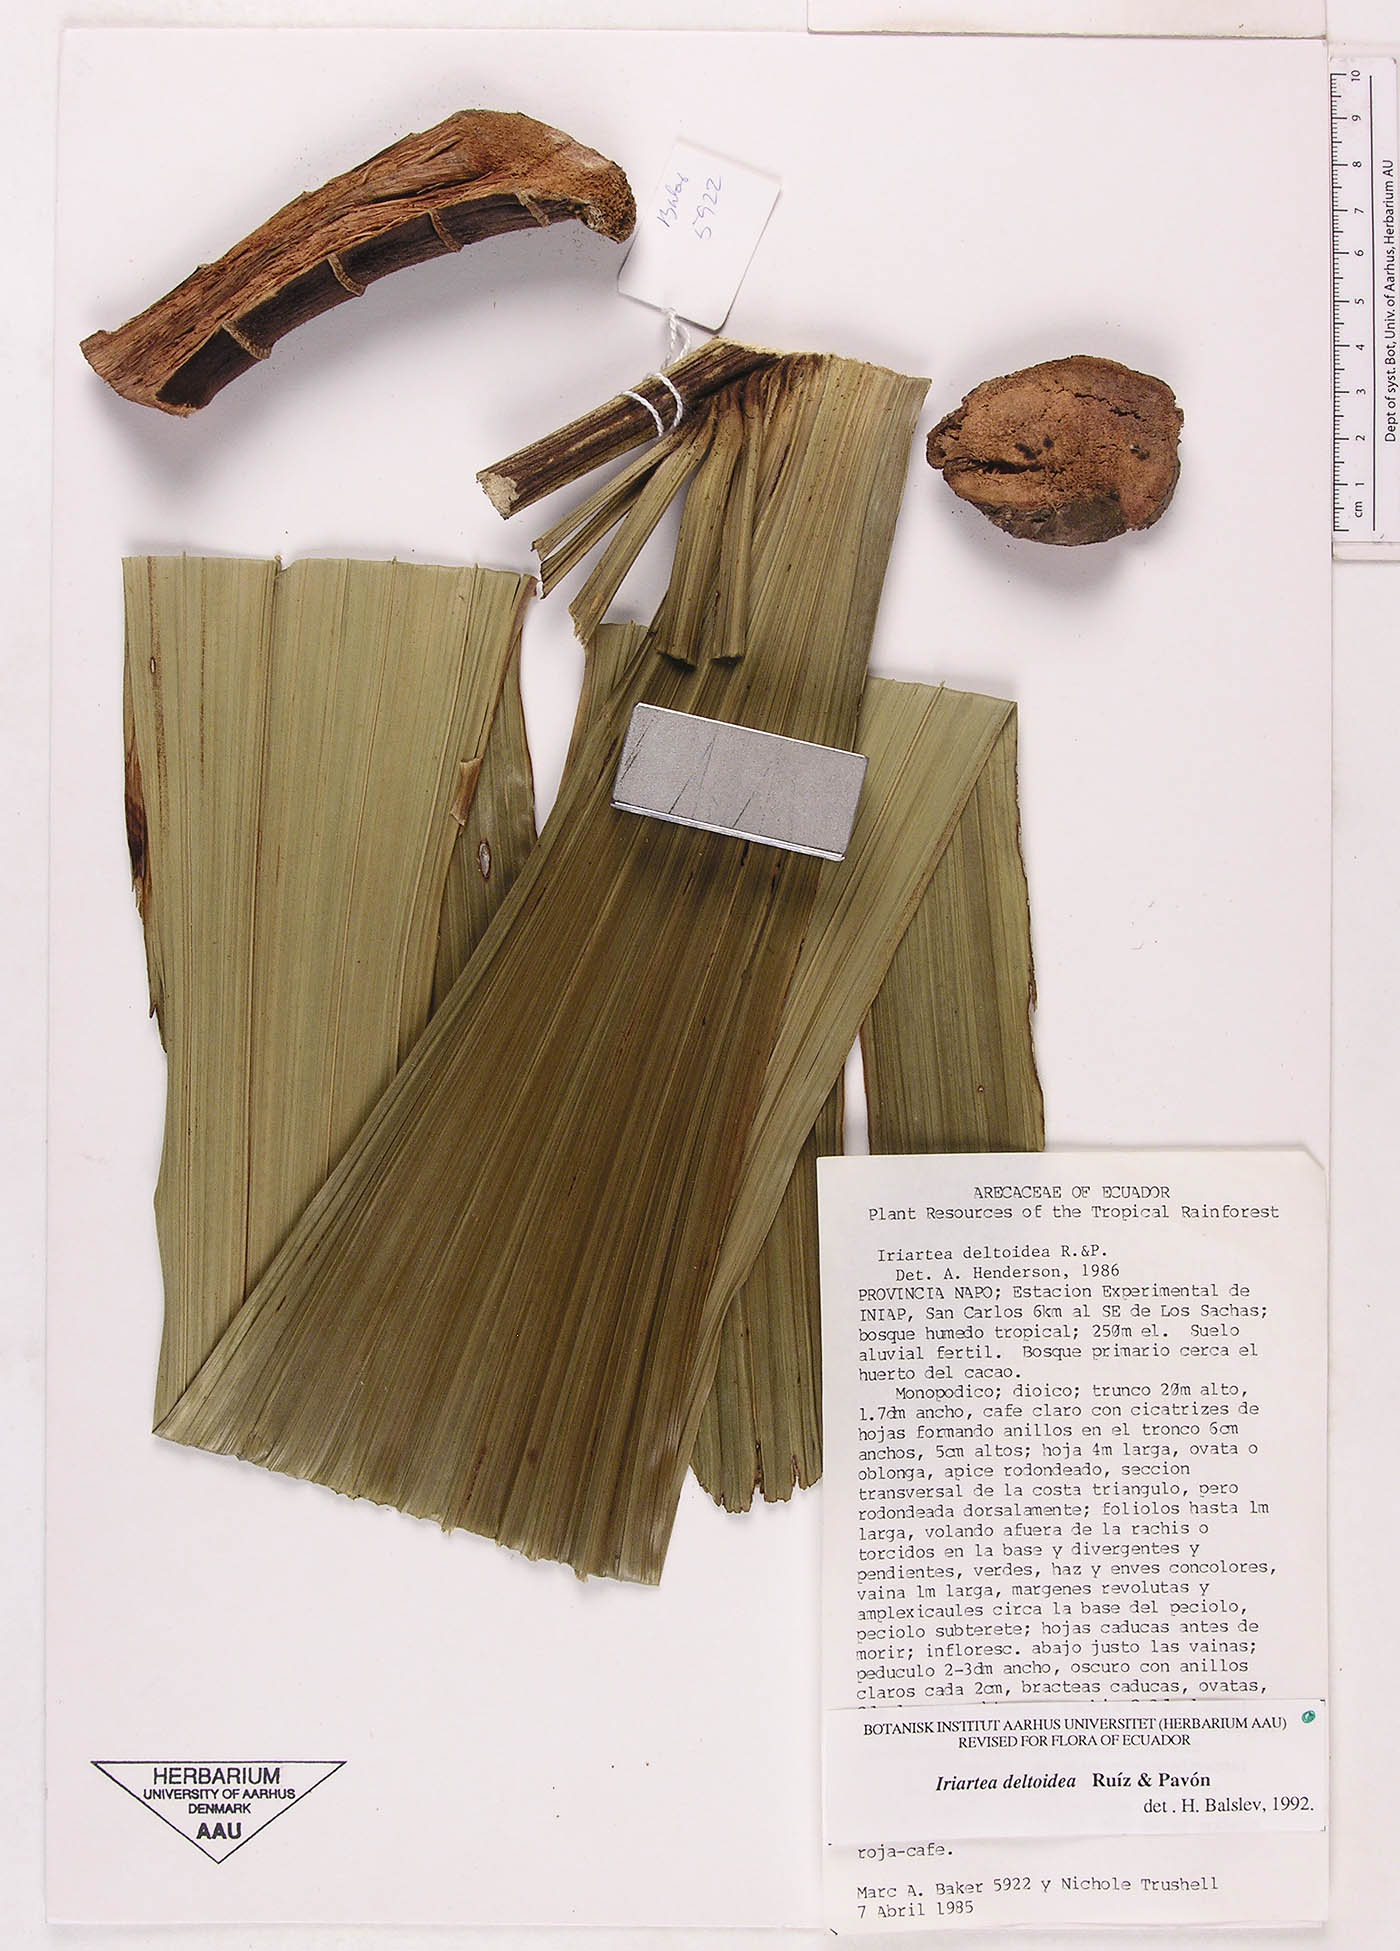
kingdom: Plantae
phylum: Tracheophyta
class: Liliopsida
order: Arecales
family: Arecaceae
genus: Iriartea
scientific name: Iriartea deltoidea
